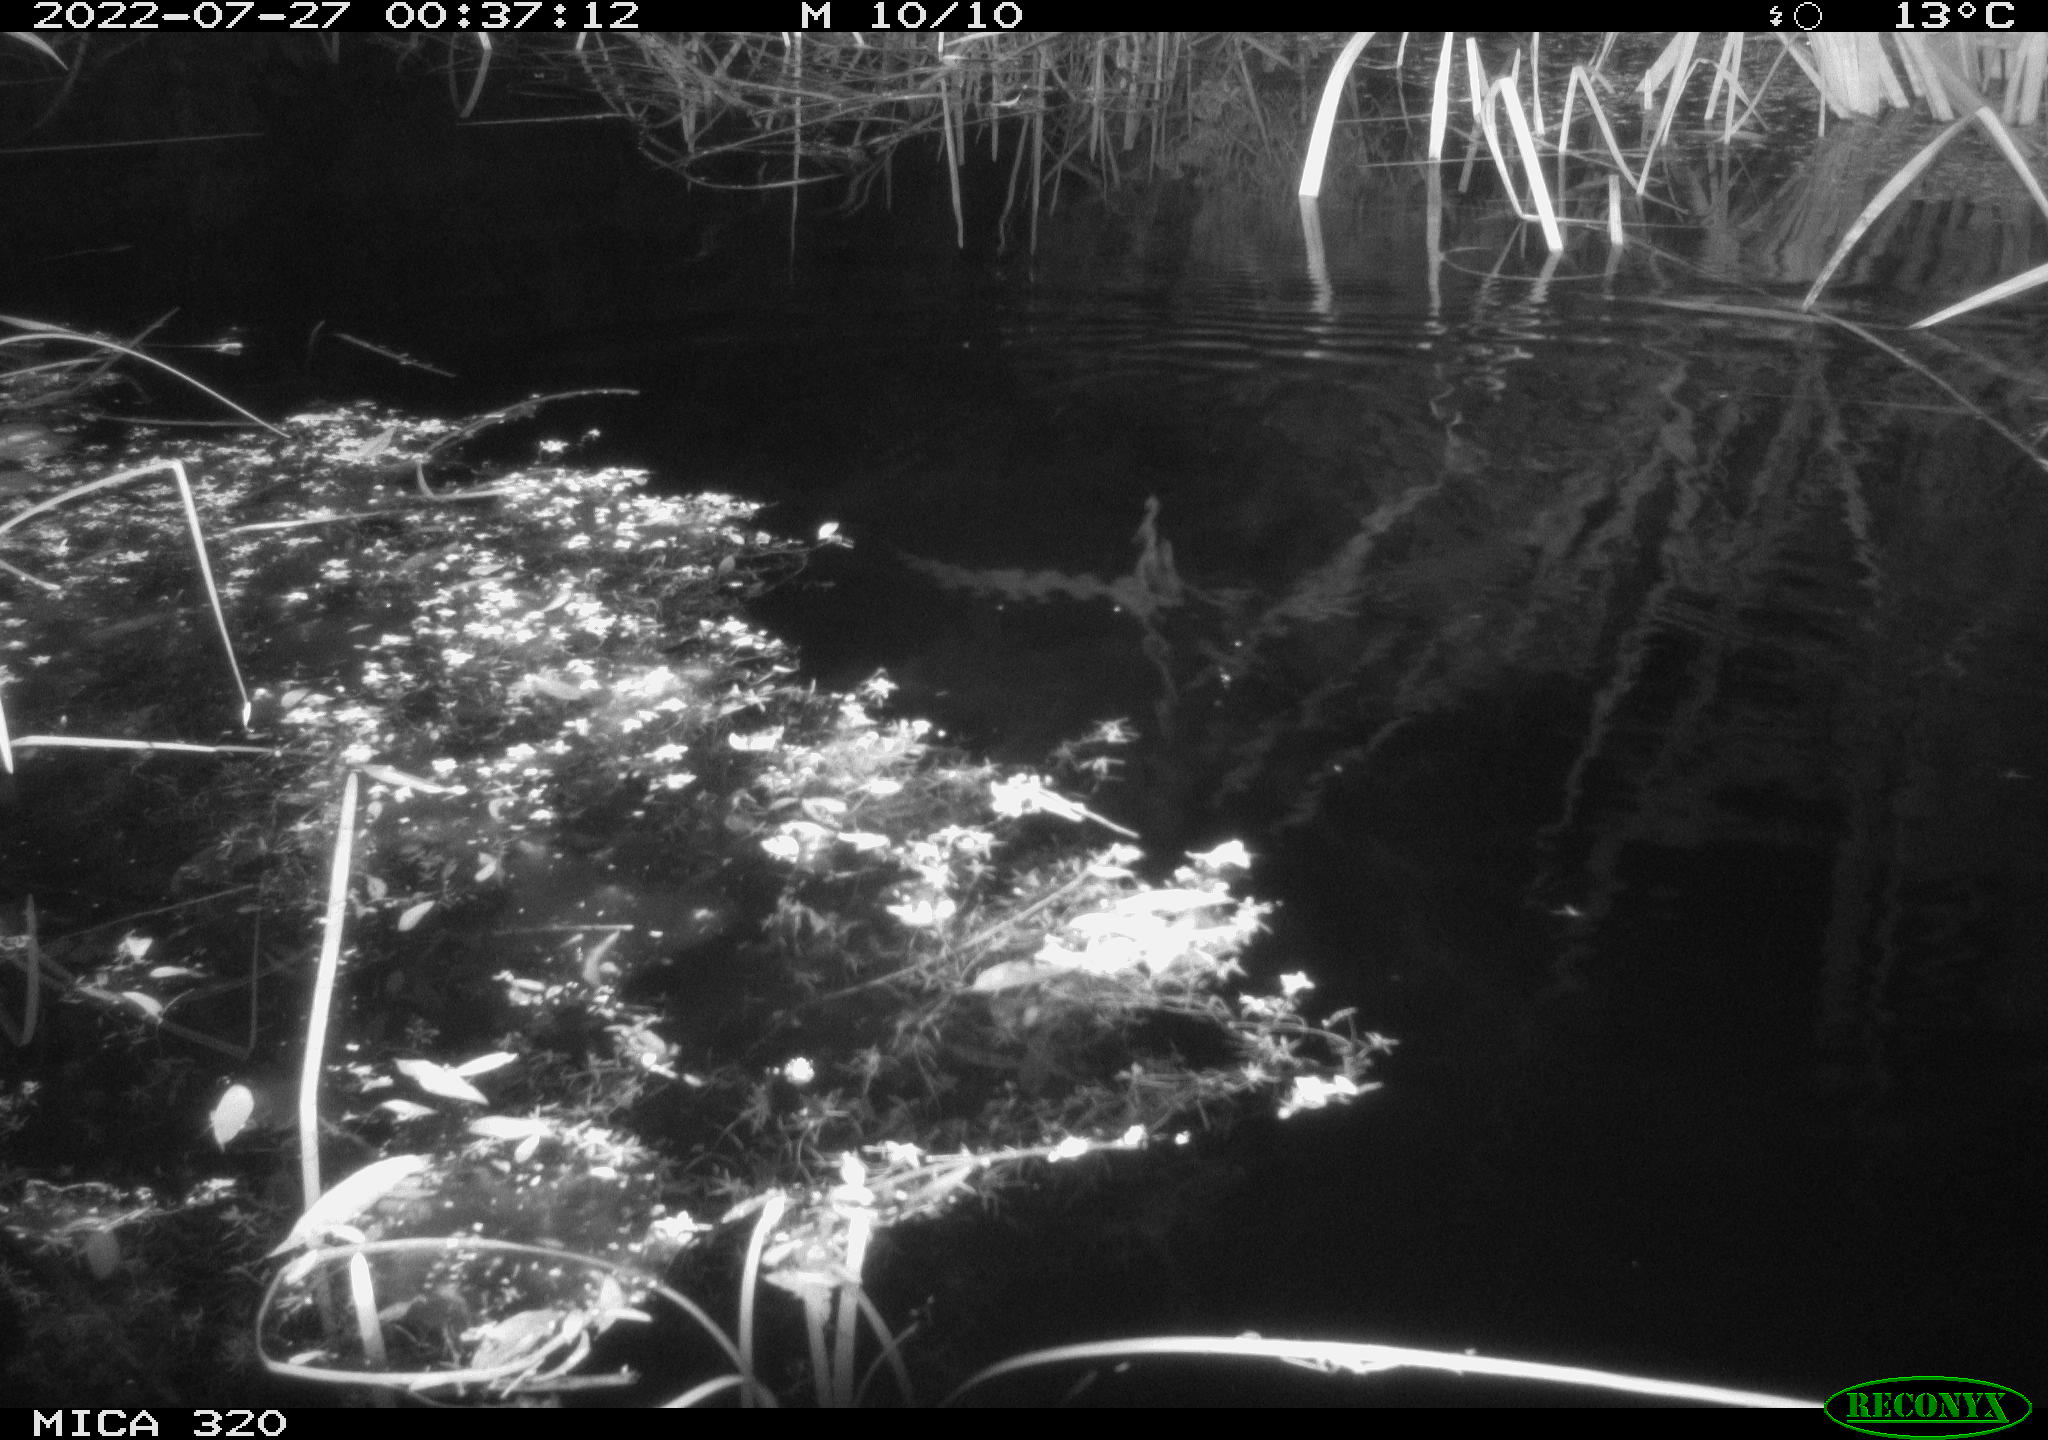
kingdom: Animalia
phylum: Chordata
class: Mammalia
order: Rodentia
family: Muridae
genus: Rattus
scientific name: Rattus norvegicus
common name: Brown rat
